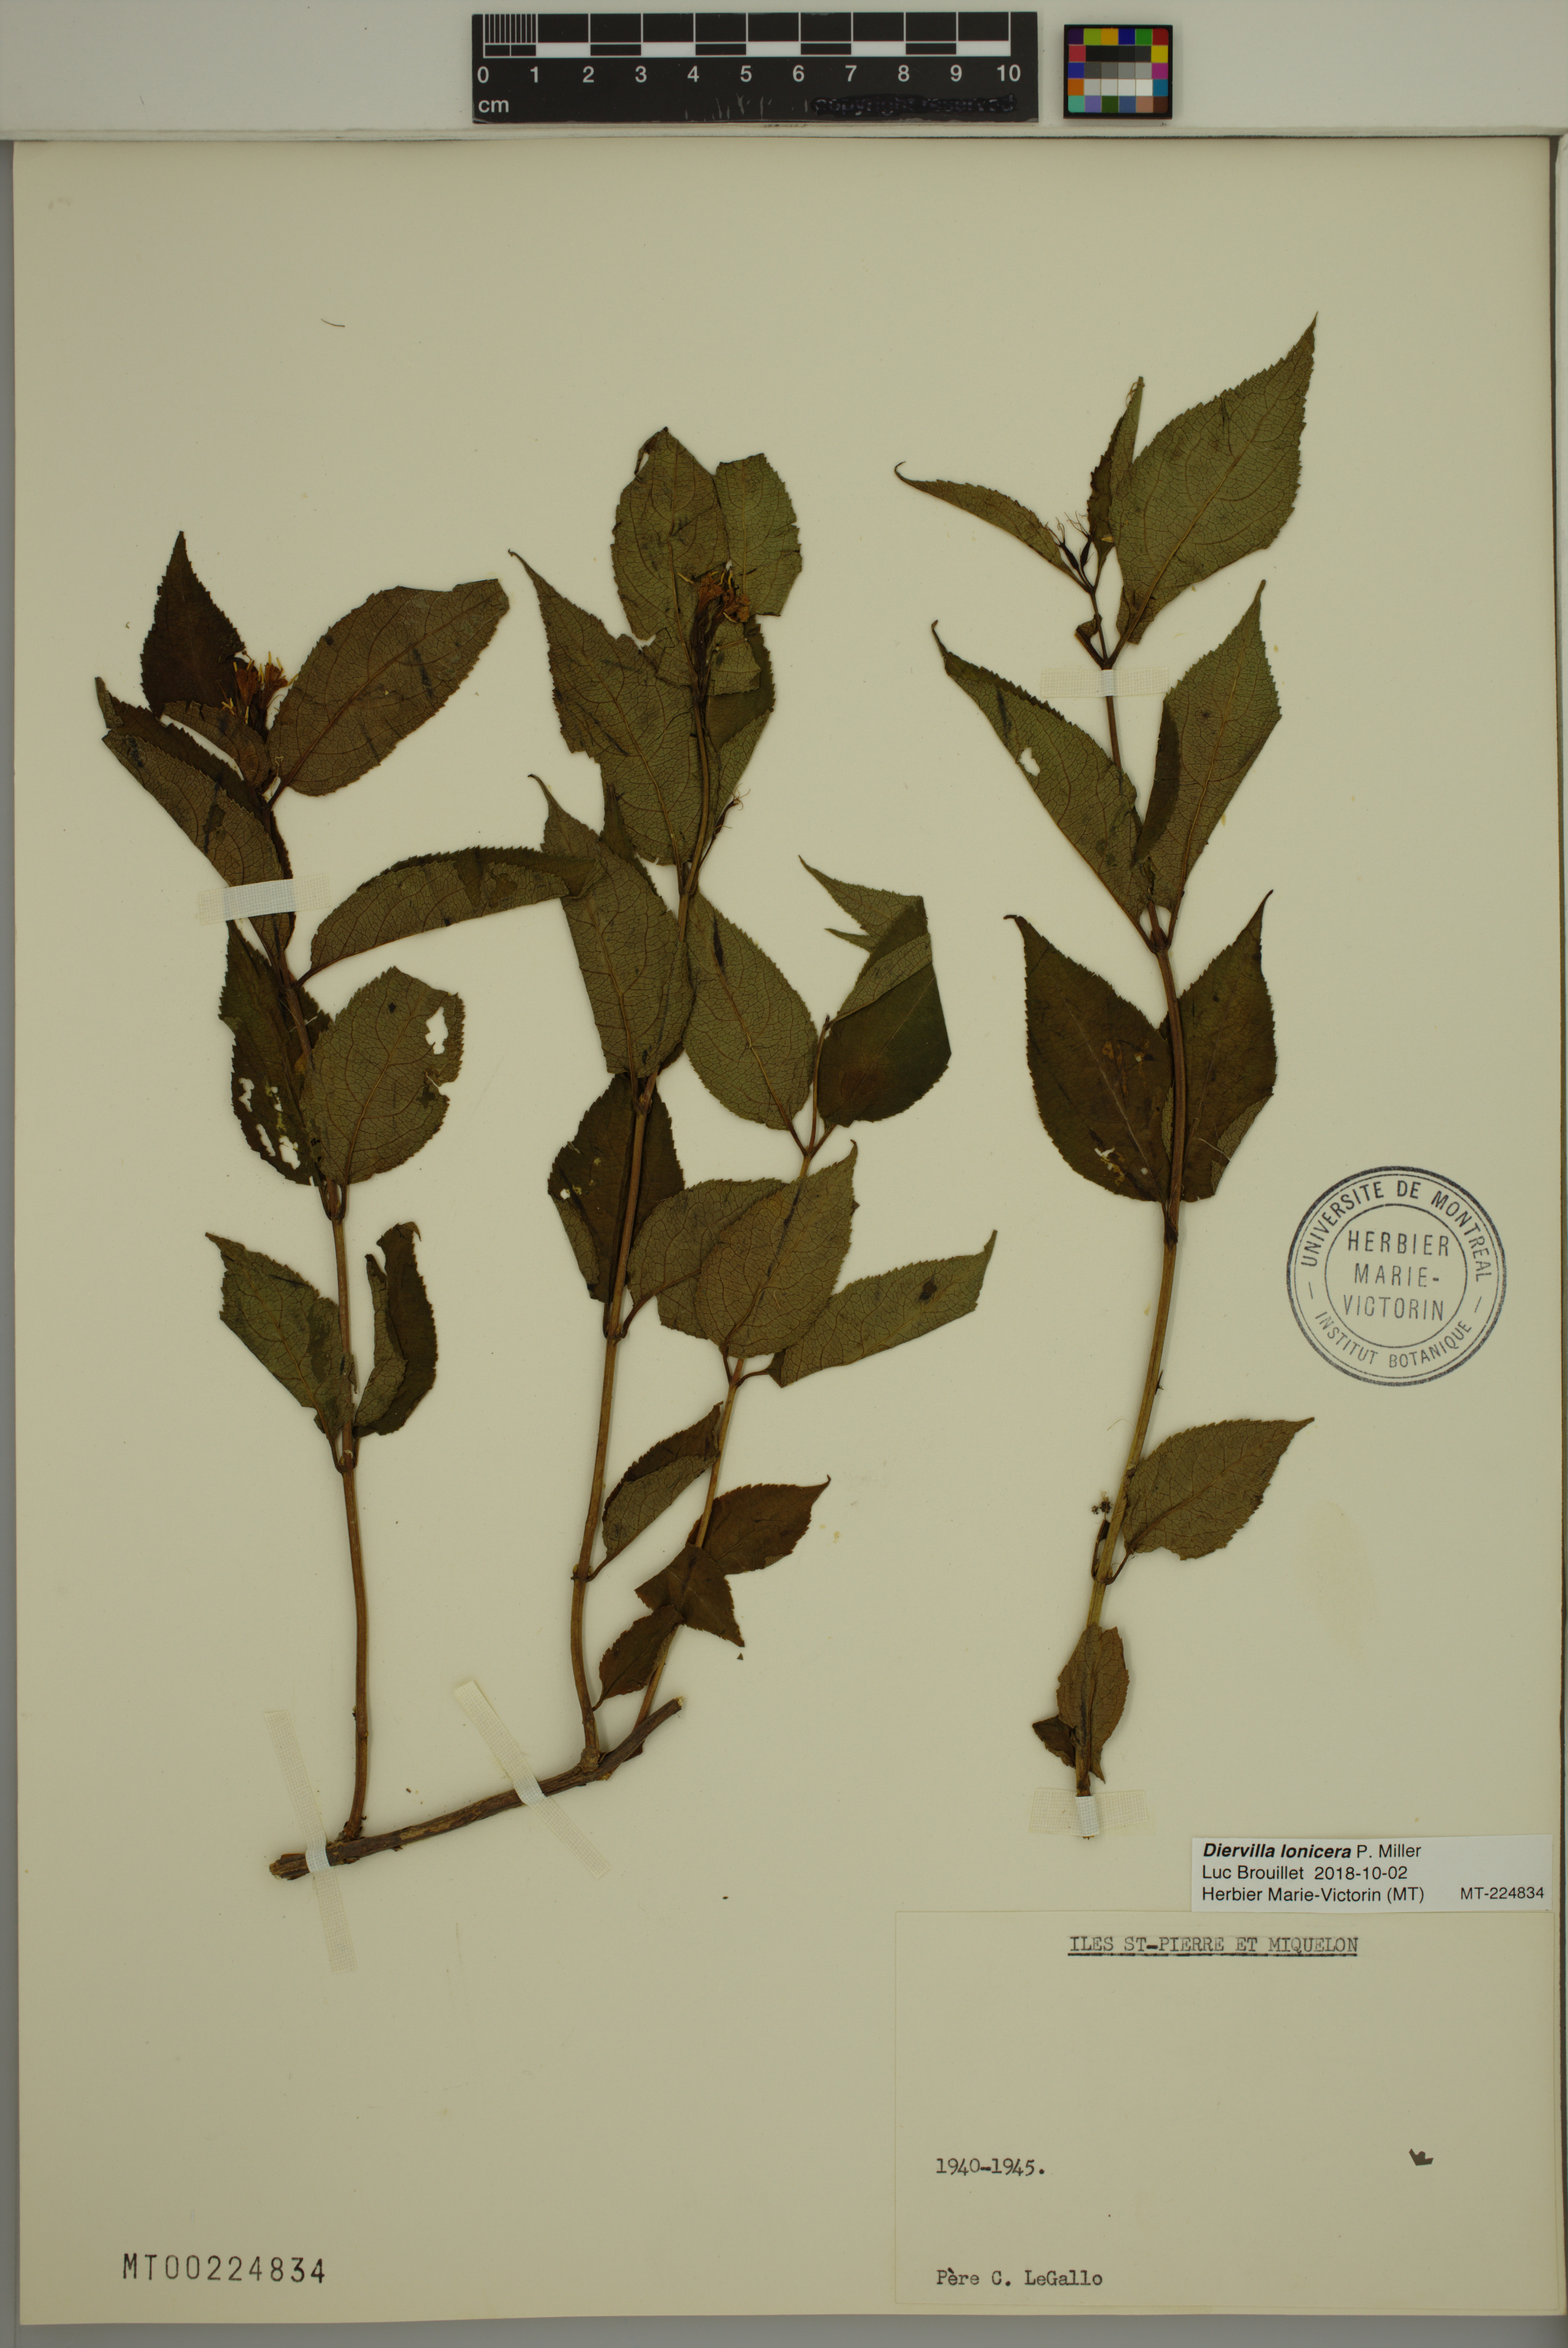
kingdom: Plantae
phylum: Tracheophyta
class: Magnoliopsida
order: Dipsacales
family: Caprifoliaceae
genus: Diervilla
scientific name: Diervilla lonicera
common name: Bush-honeysuckle
